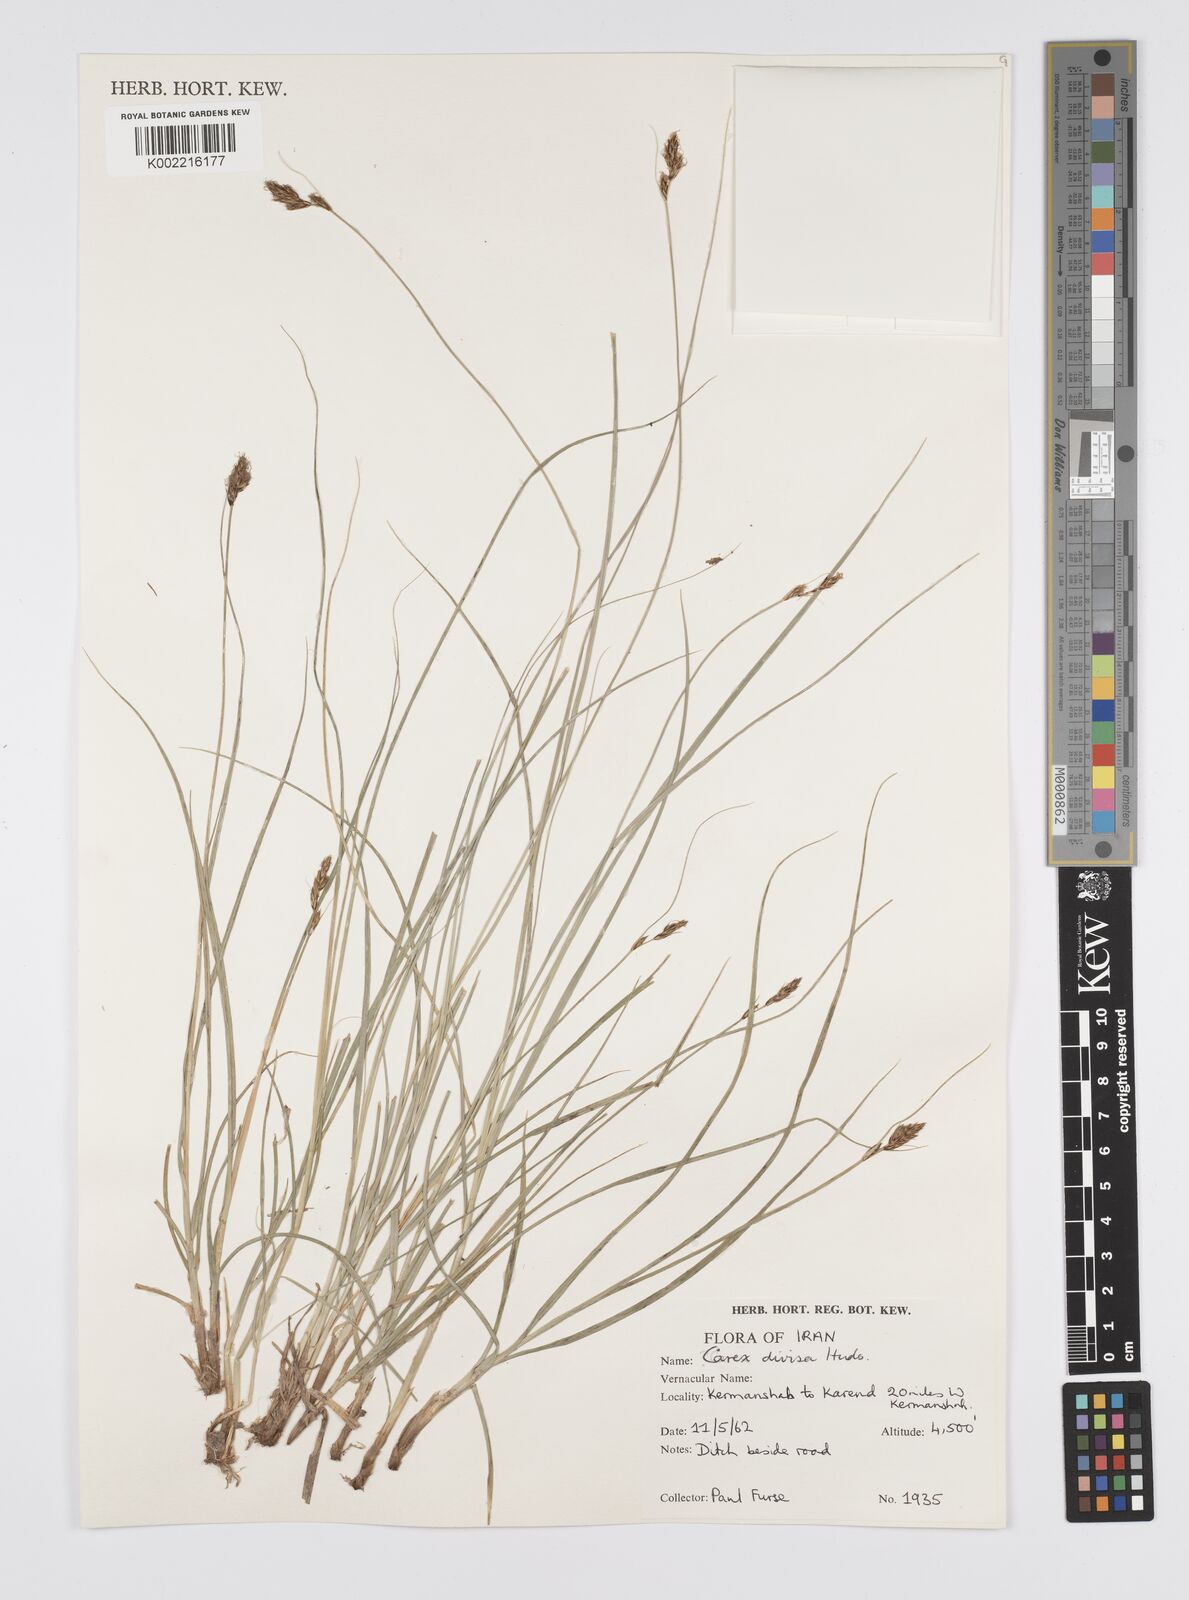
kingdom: Plantae
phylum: Tracheophyta
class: Liliopsida
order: Poales
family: Cyperaceae
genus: Carex
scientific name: Carex divisa
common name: Divided sedge
